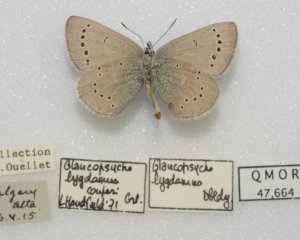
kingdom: Animalia
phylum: Arthropoda
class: Insecta
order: Lepidoptera
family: Lycaenidae
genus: Glaucopsyche
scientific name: Glaucopsyche lygdamus
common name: Silvery Blue
